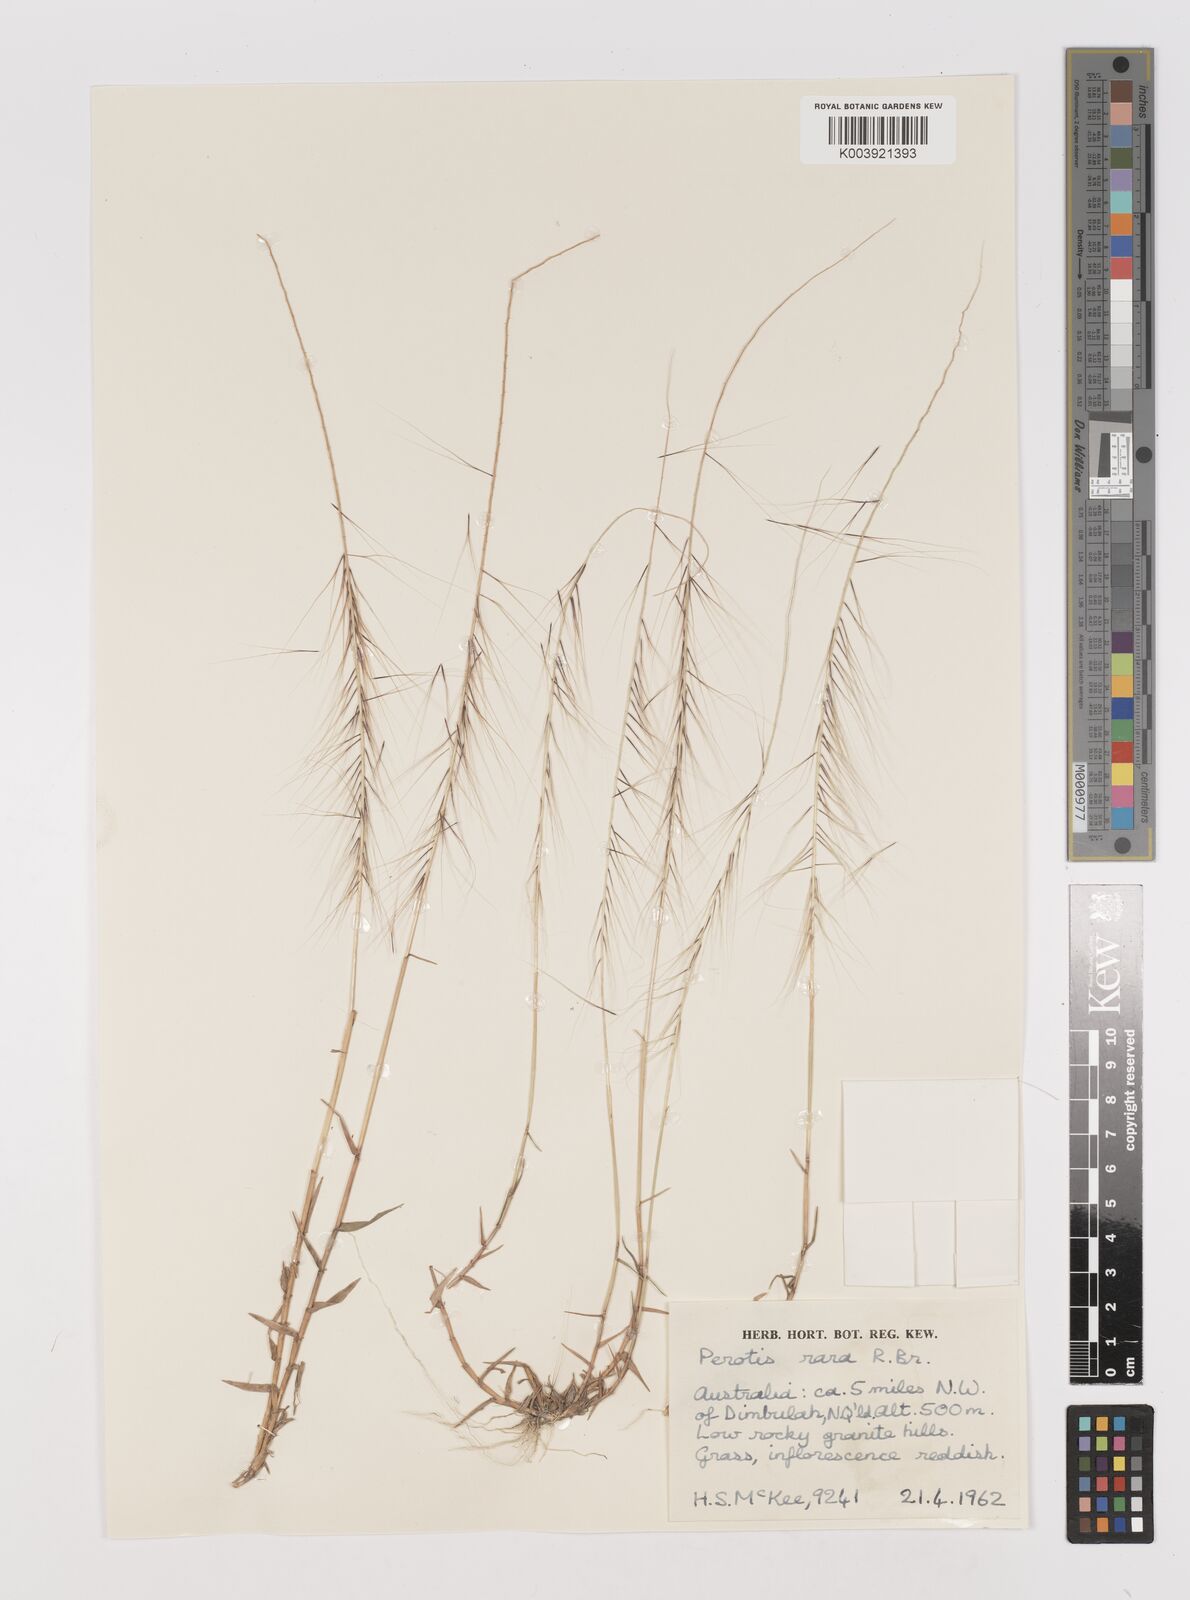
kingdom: Plantae
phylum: Tracheophyta
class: Liliopsida
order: Poales
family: Poaceae
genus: Perotis
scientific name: Perotis rara
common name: Comet grass
